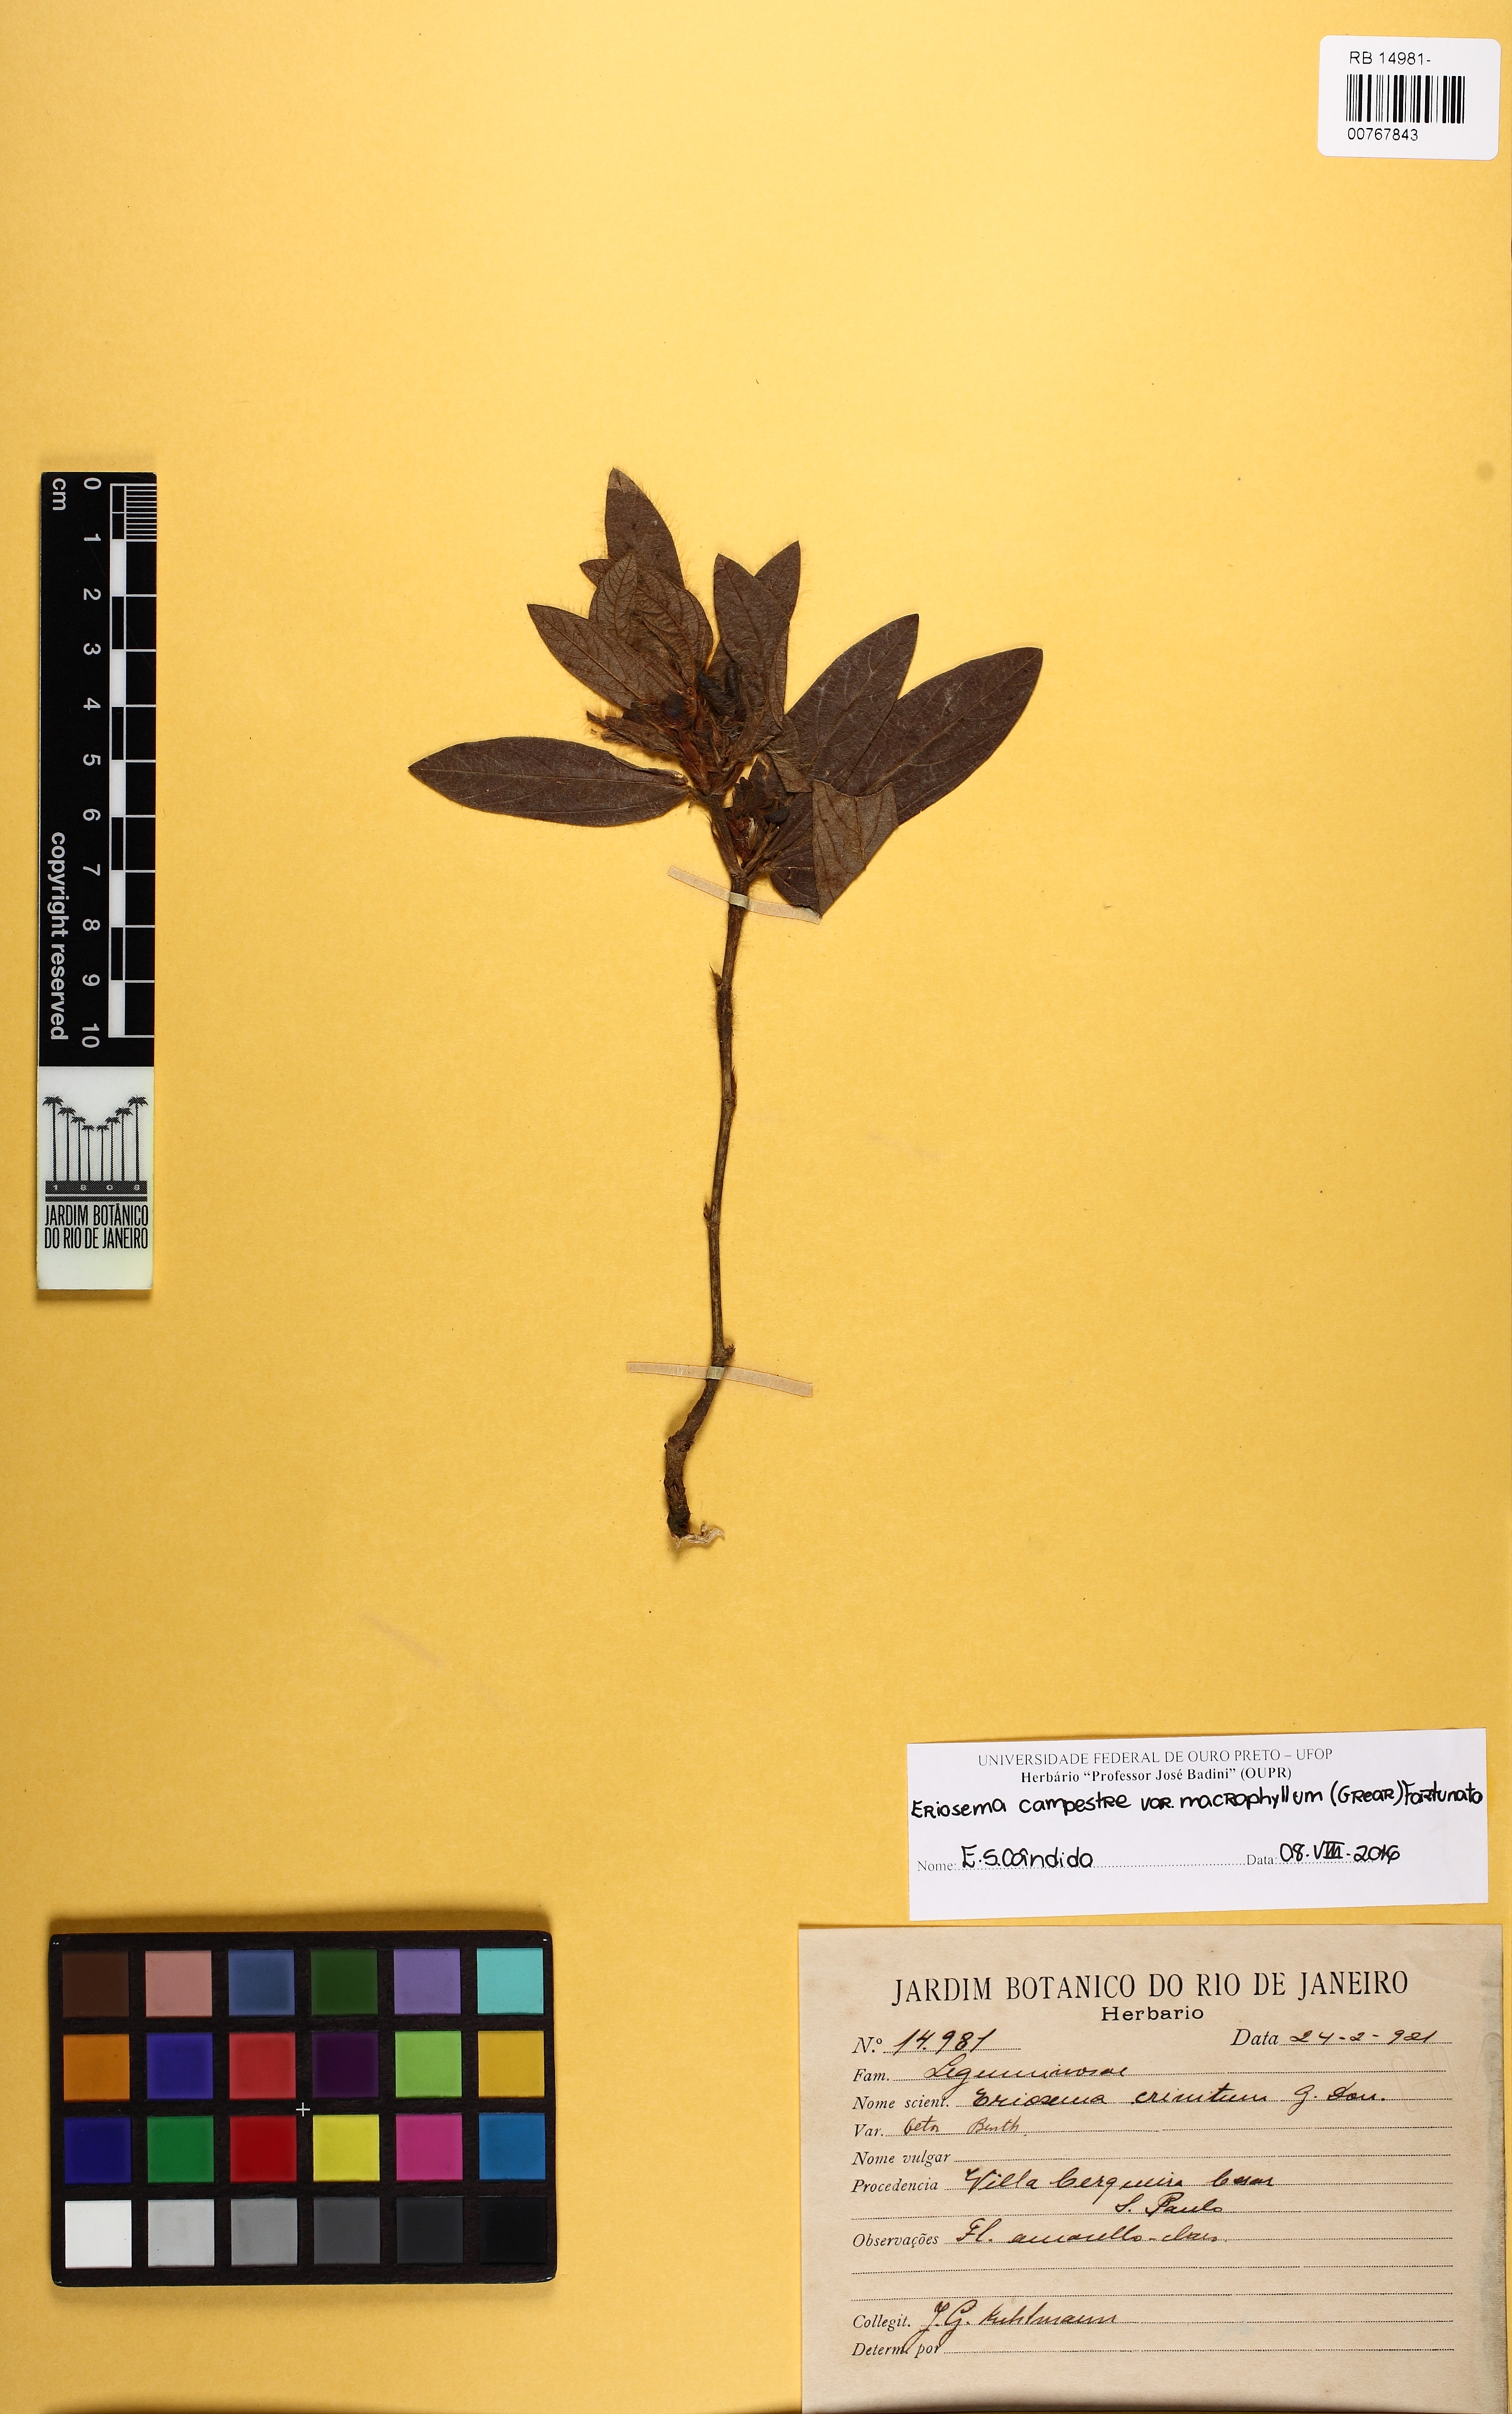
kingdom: Plantae
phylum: Tracheophyta
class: Magnoliopsida
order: Fabales
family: Fabaceae
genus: Eriosema
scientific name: Eriosema crinitum
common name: Sand pea
